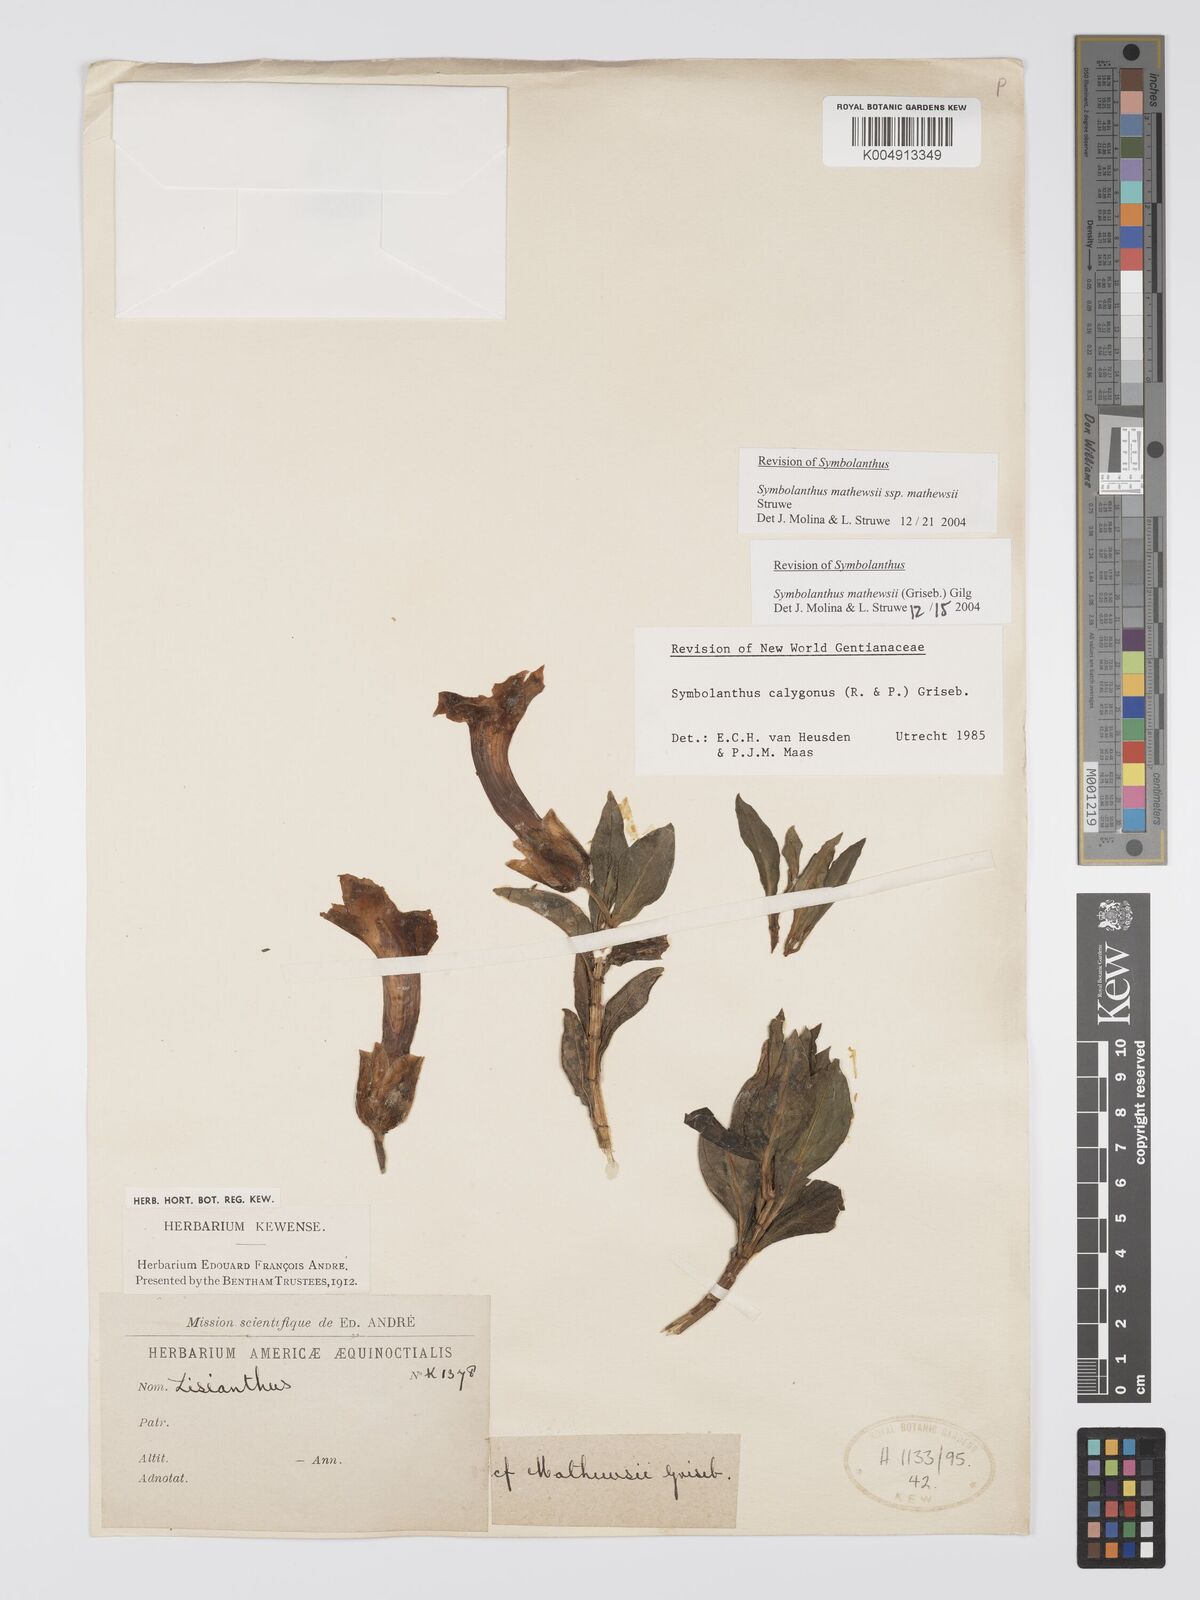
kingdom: Plantae
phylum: Tracheophyta
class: Magnoliopsida
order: Gentianales
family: Gentianaceae
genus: Symbolanthus
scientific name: Symbolanthus mathewsii
